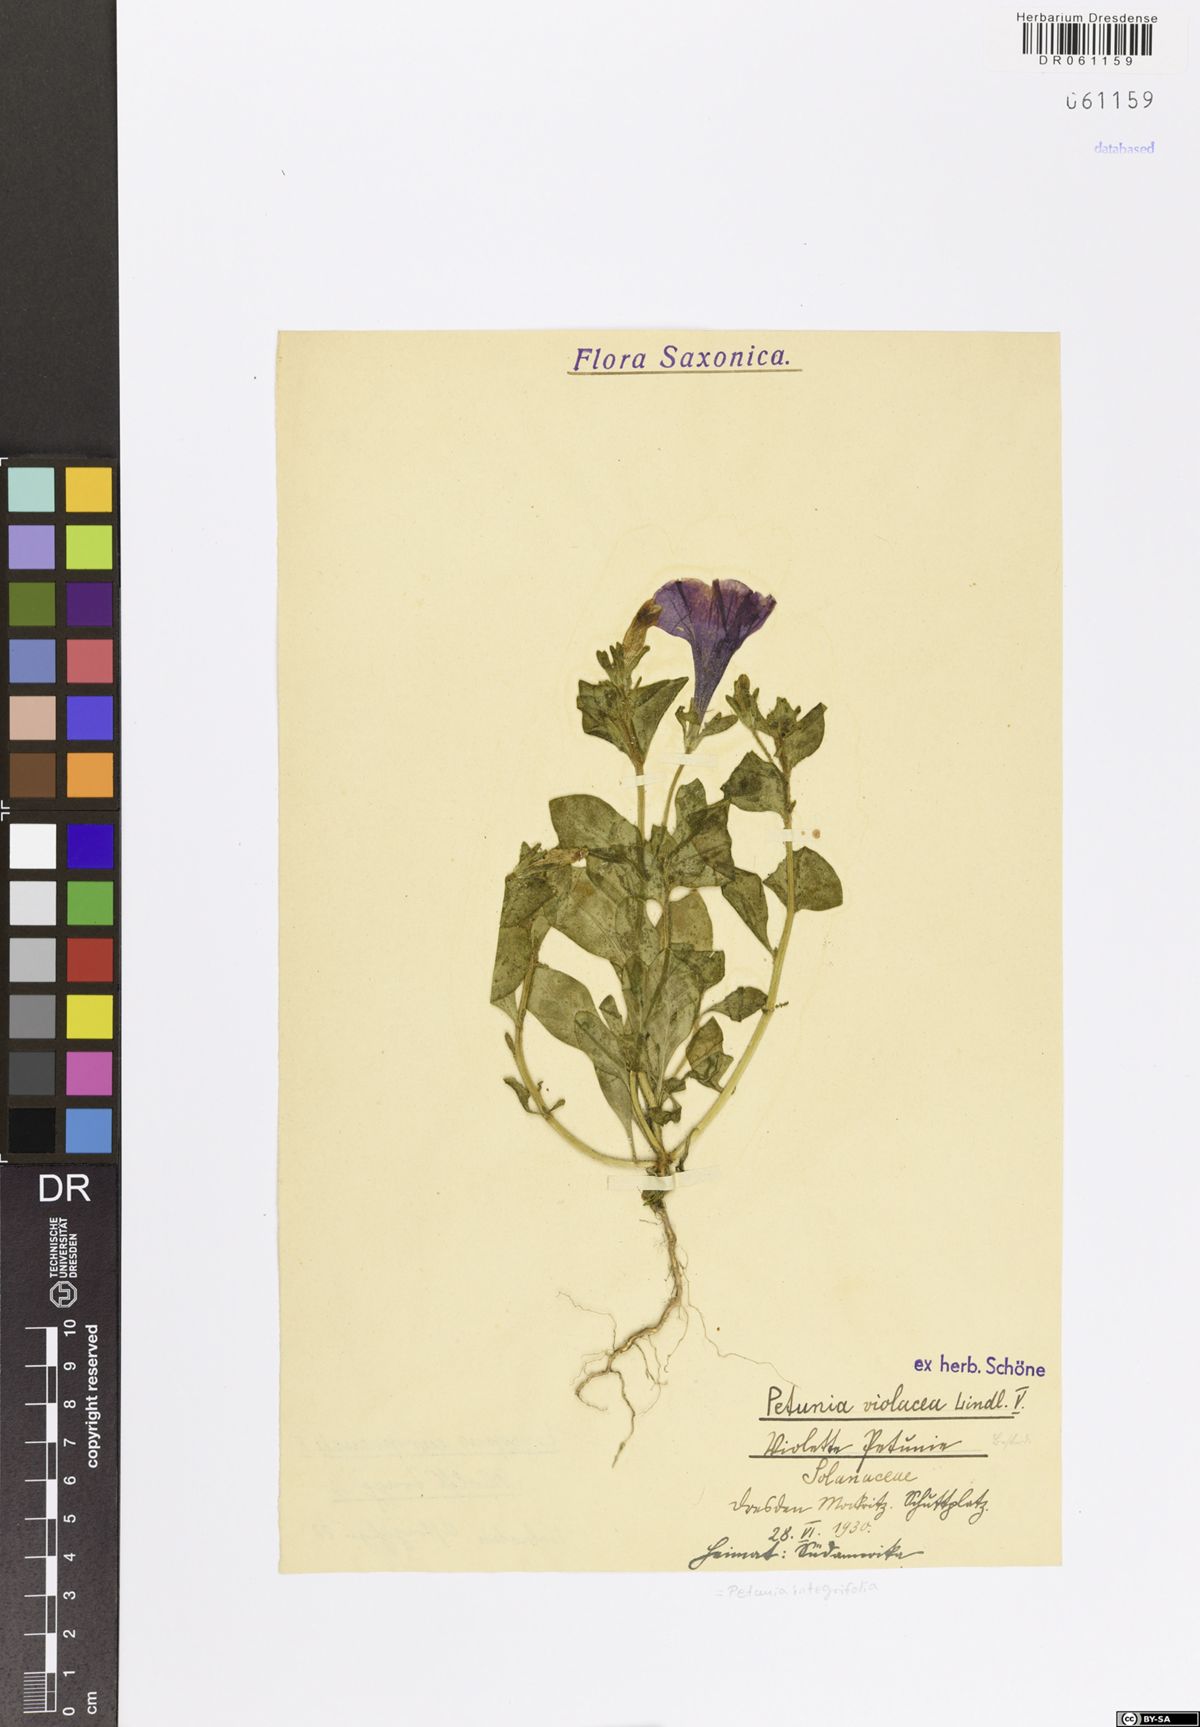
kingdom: Plantae
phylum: Tracheophyta
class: Magnoliopsida
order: Solanales
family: Solanaceae
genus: Petunia
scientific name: Petunia integrifolia
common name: Violet-flower petunia
